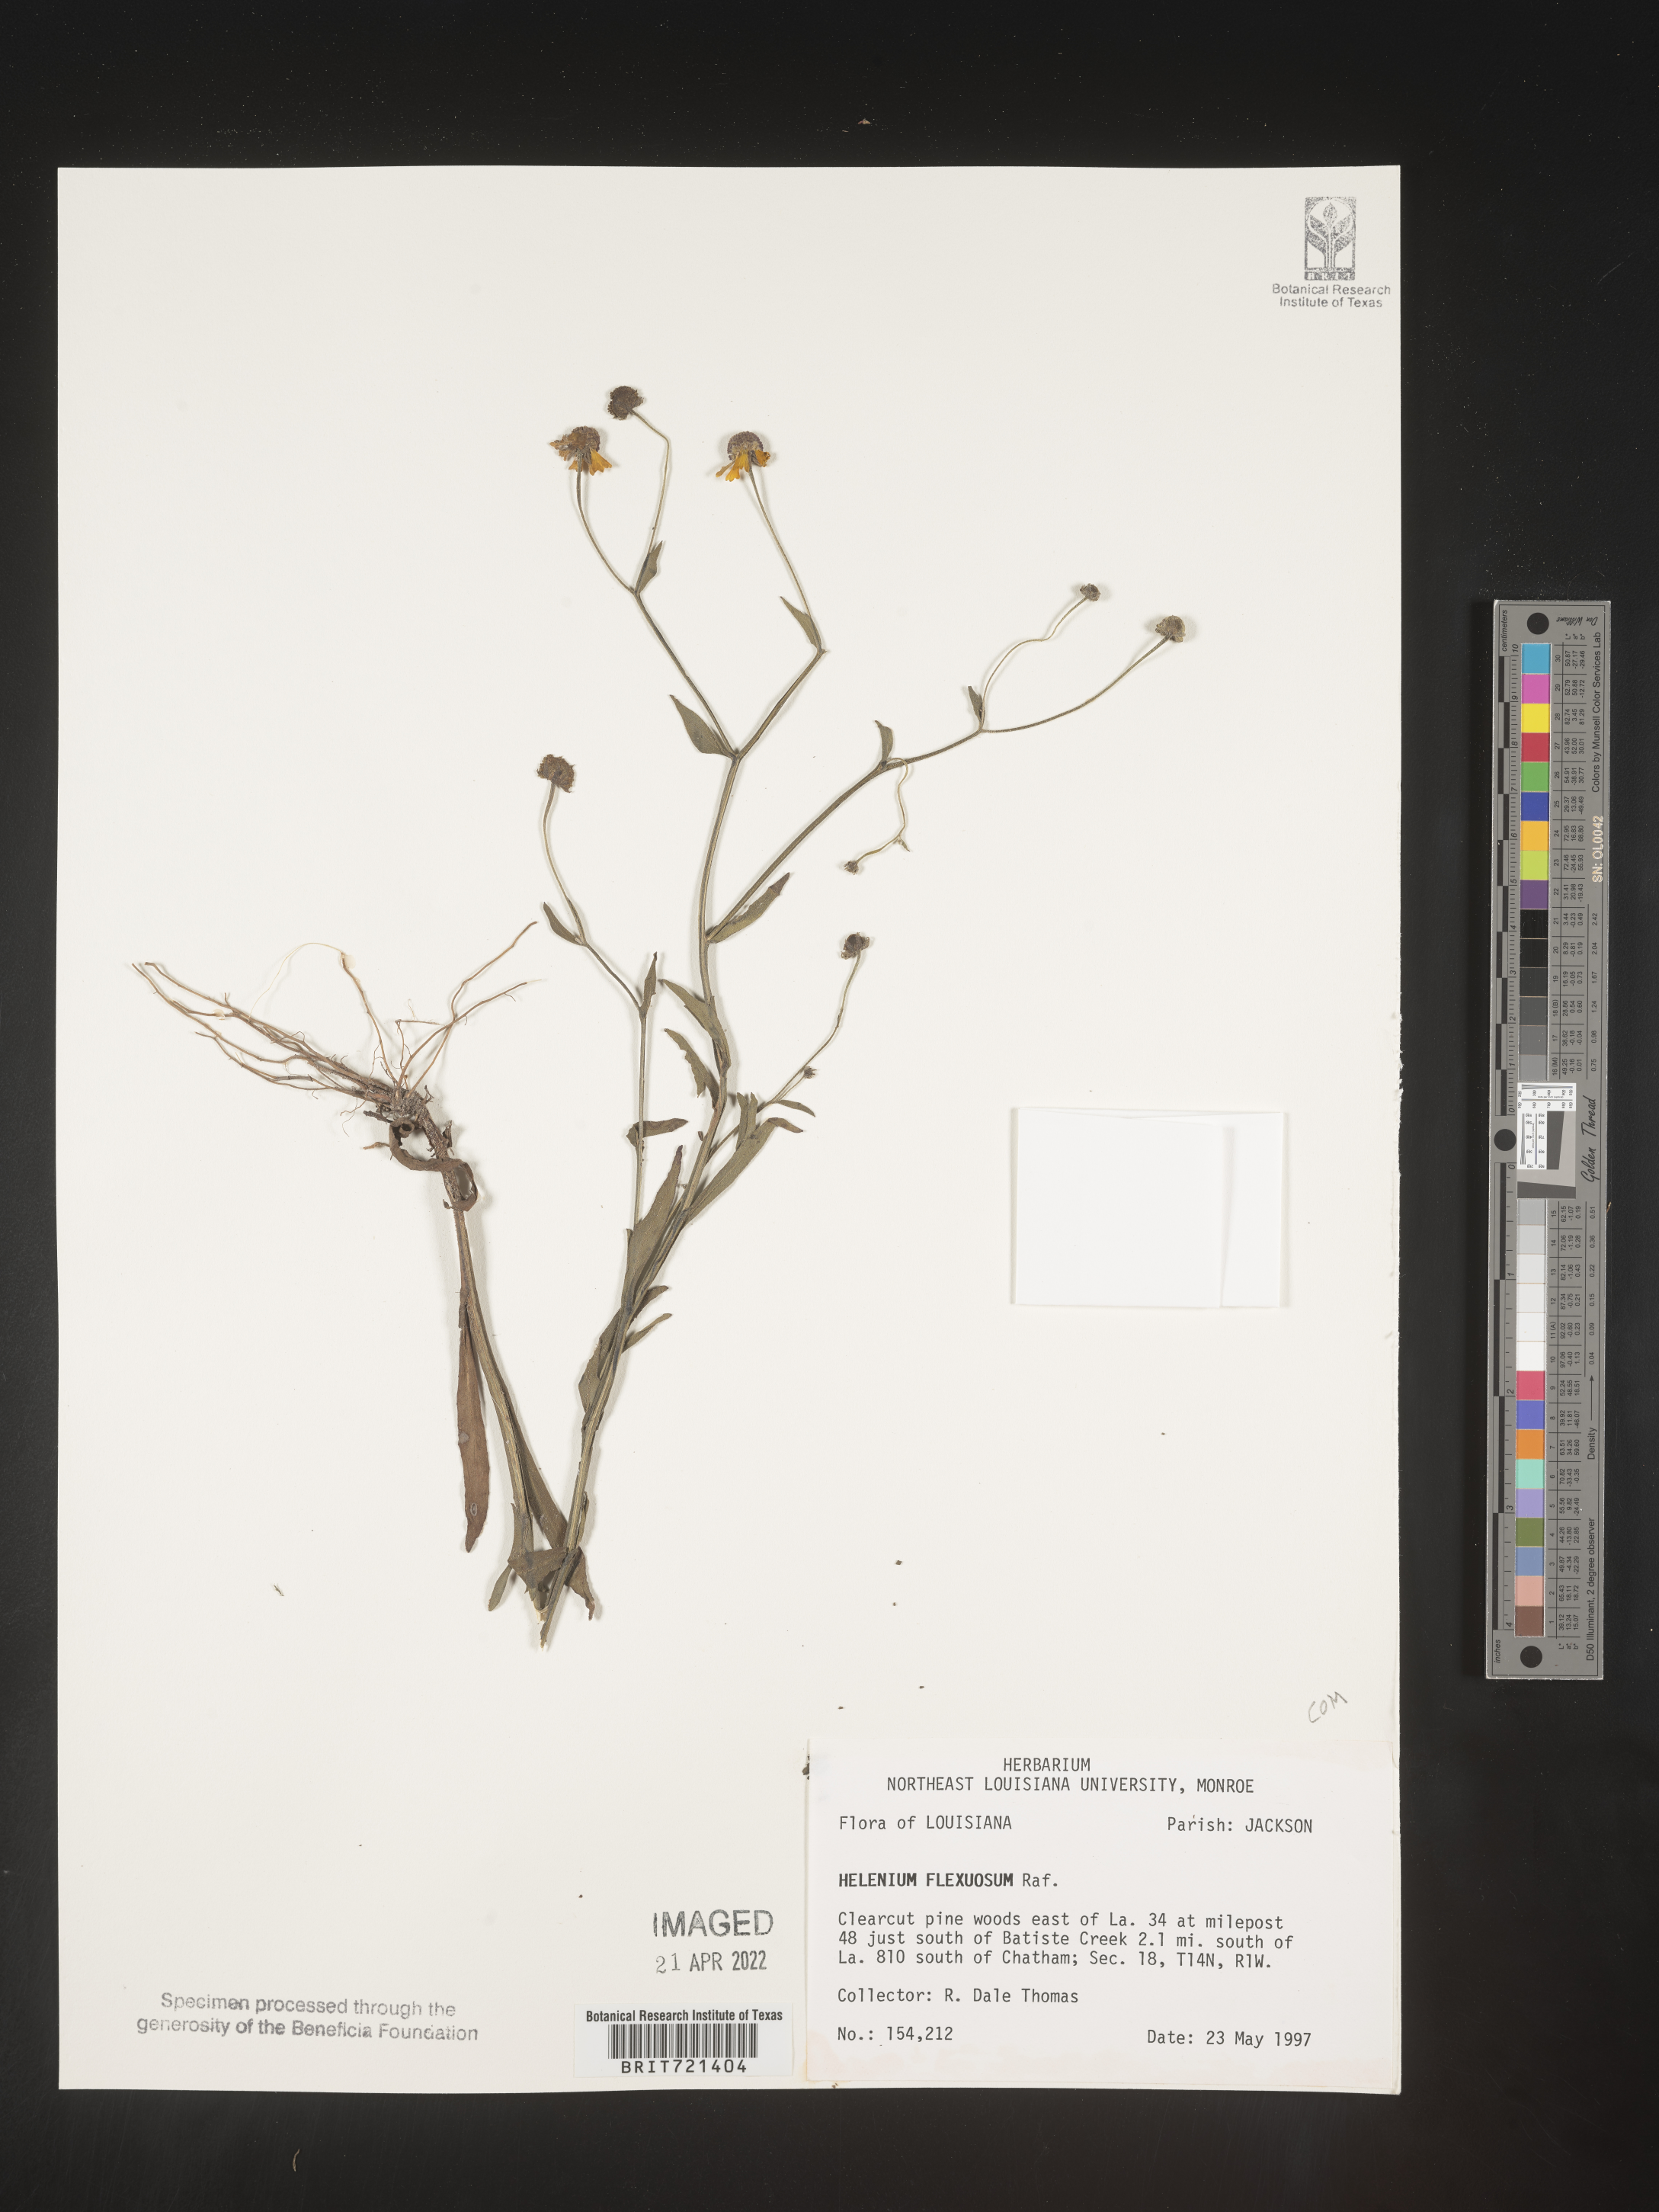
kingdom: Plantae
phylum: Tracheophyta
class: Magnoliopsida
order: Asterales
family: Asteraceae
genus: Helenium
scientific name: Helenium flexuosum
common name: Naked-flowered sneezeweed
